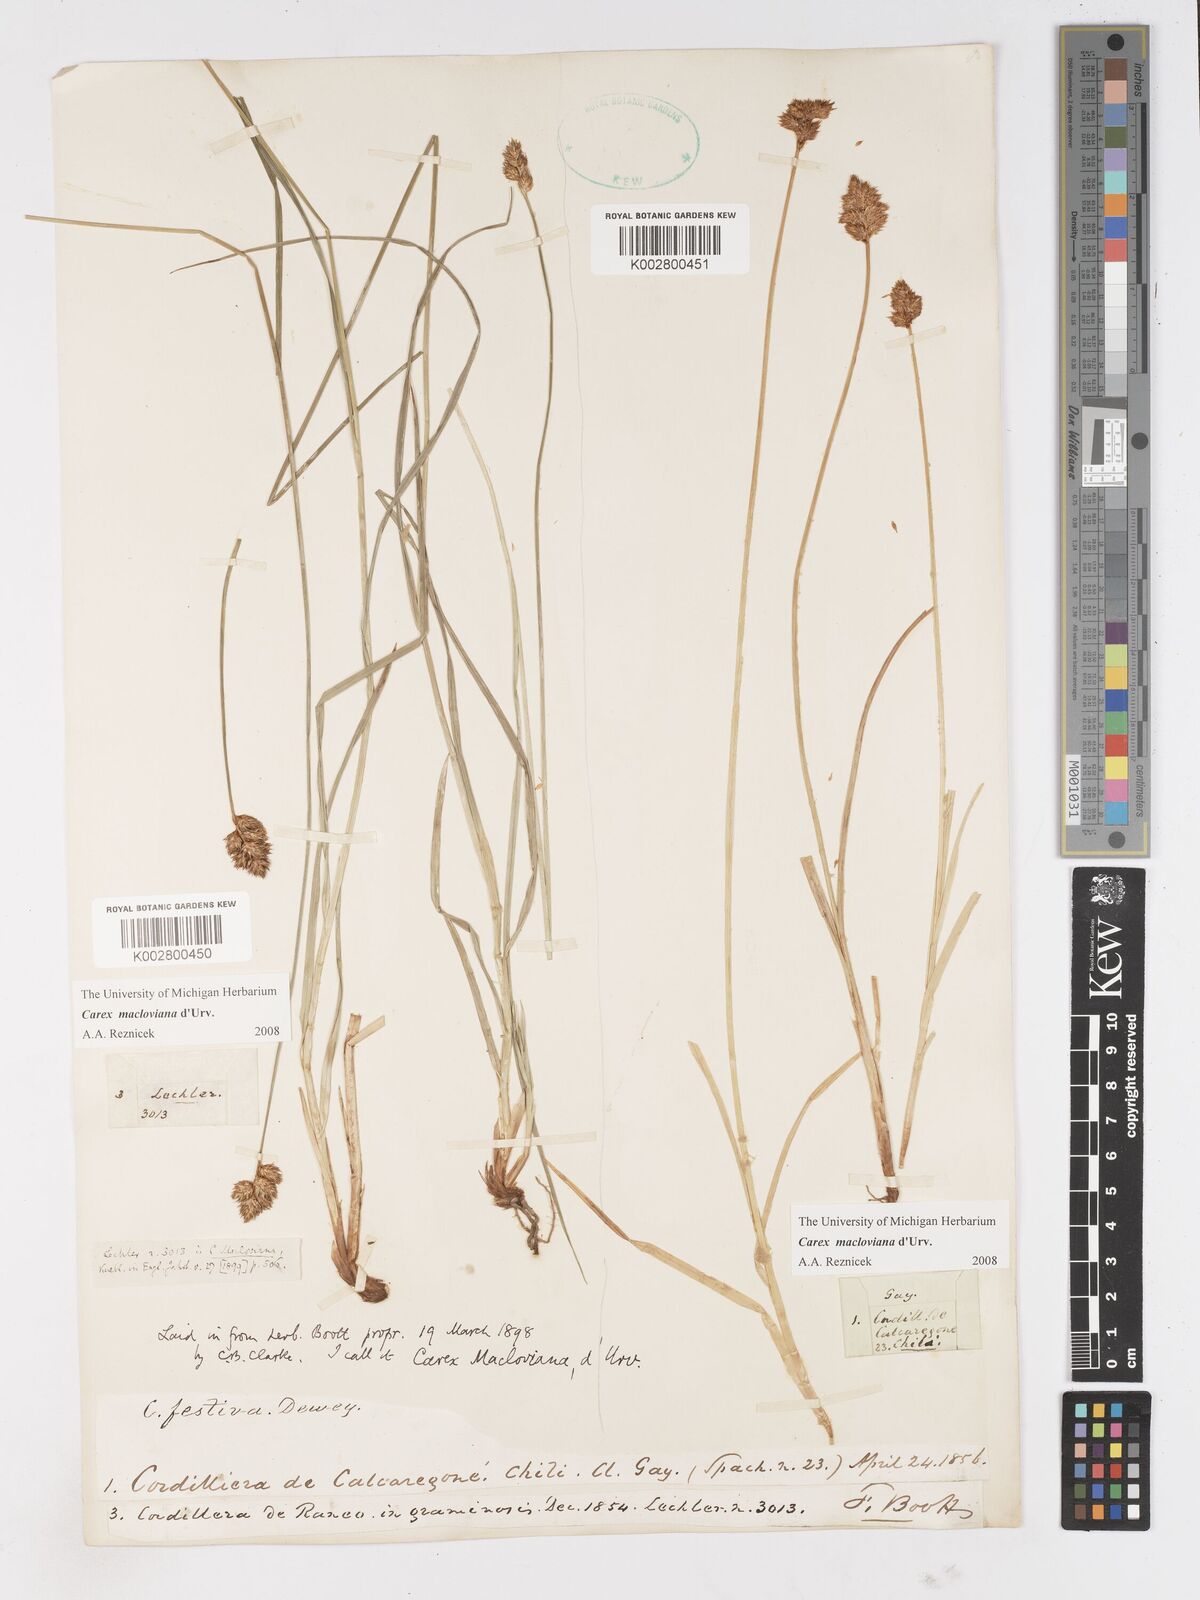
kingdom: Plantae
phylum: Tracheophyta
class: Liliopsida
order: Poales
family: Cyperaceae
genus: Carex
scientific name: Carex macloviana
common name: Falkland island sedge
